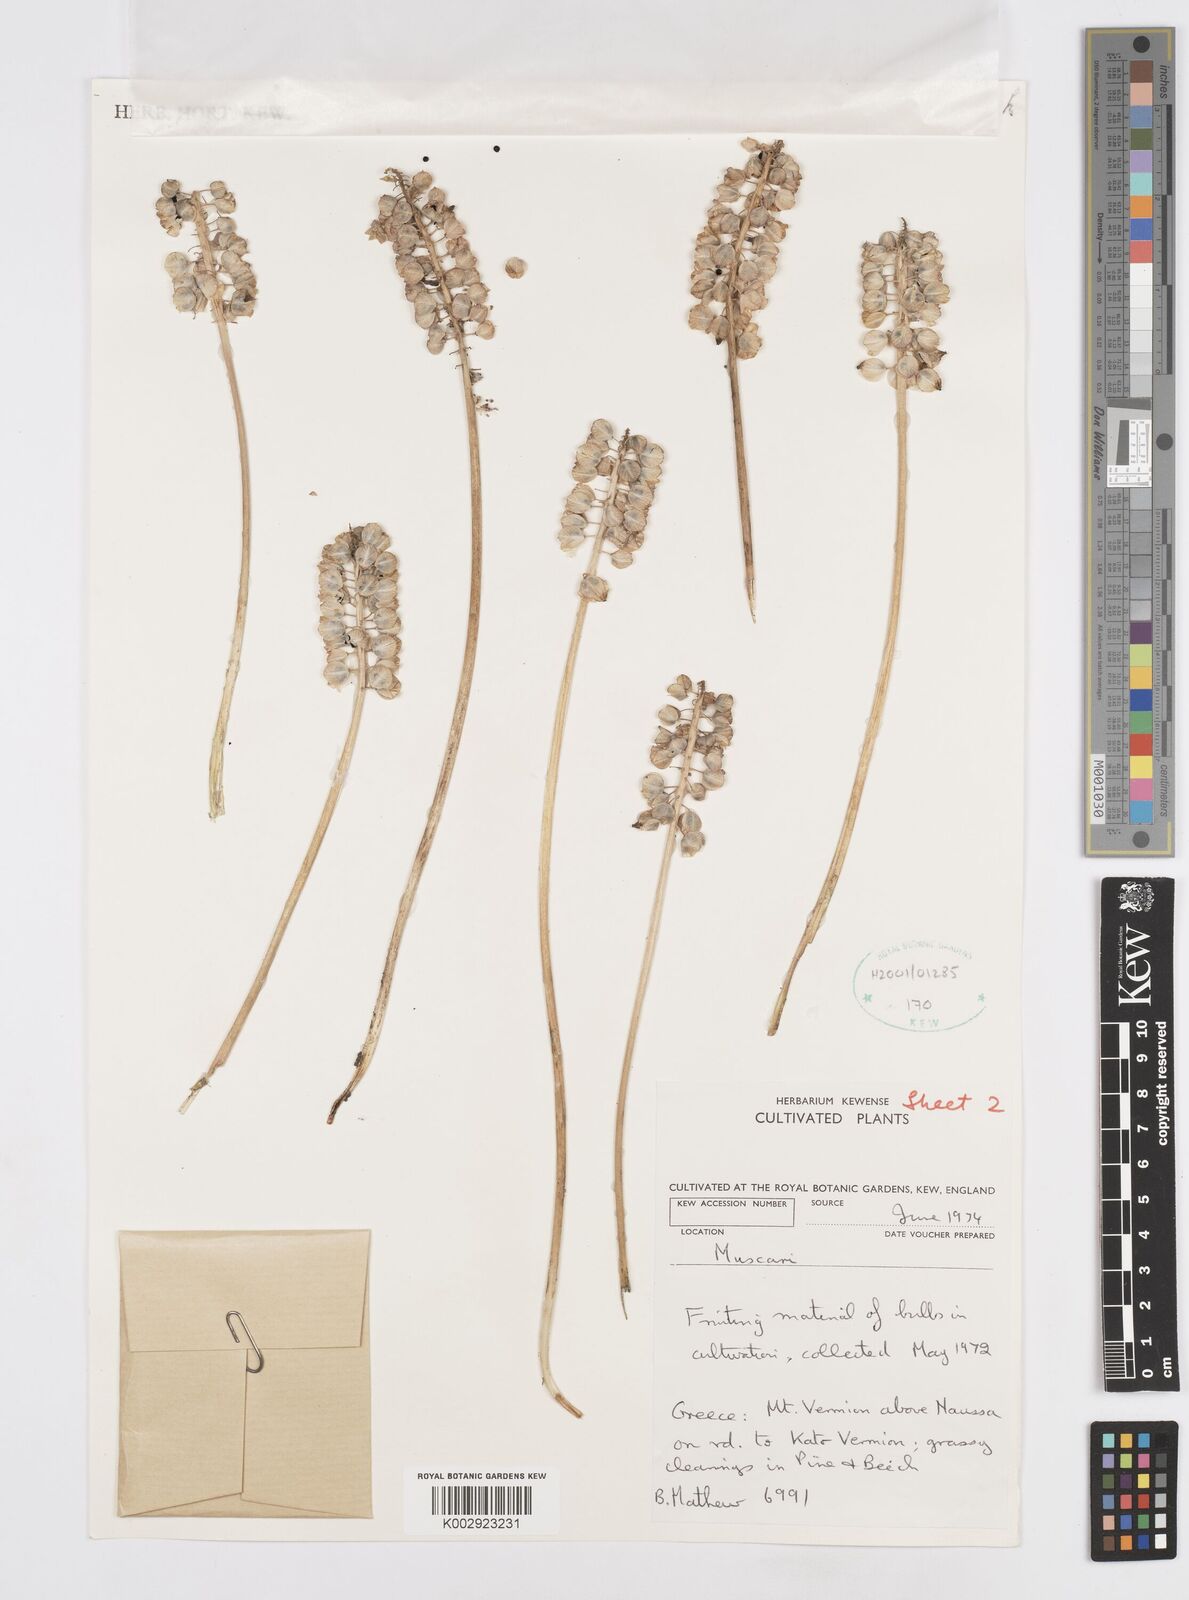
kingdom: Plantae
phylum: Tracheophyta
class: Liliopsida
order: Asparagales
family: Asparagaceae
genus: Muscari
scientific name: Muscari
